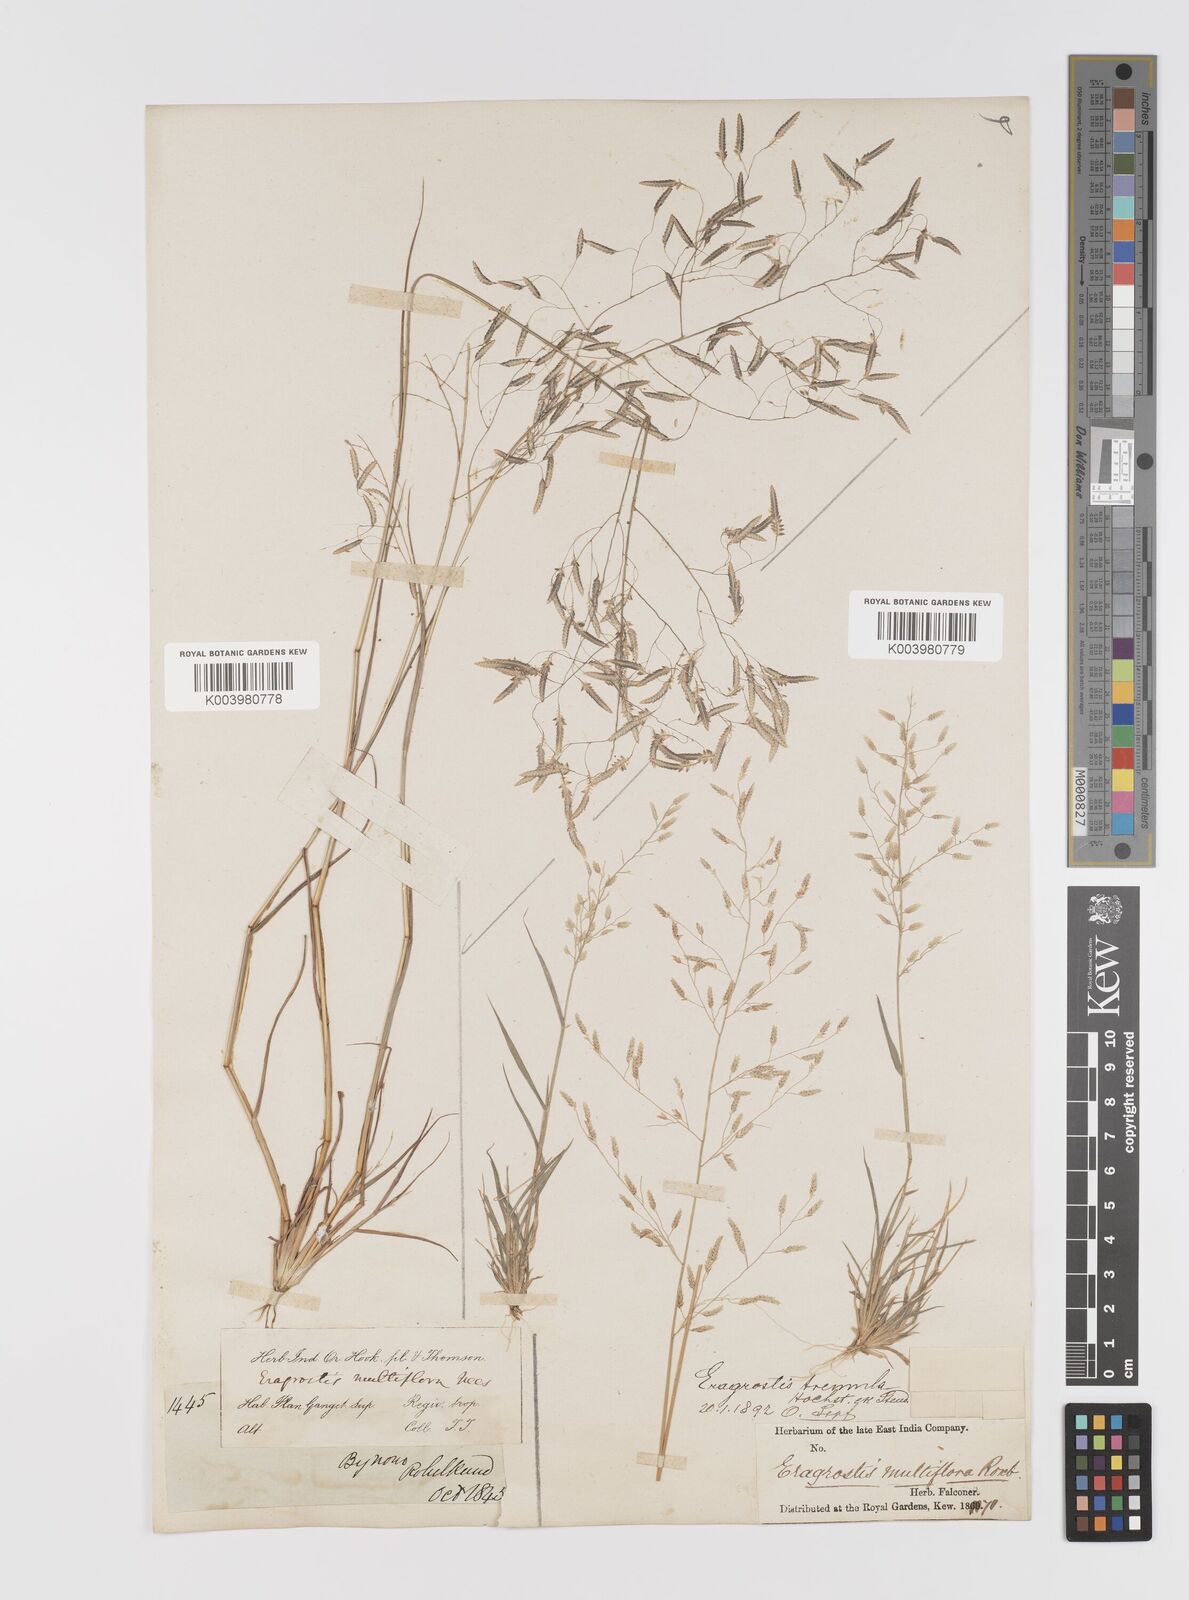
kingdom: Plantae
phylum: Tracheophyta
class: Liliopsida
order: Poales
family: Poaceae
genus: Eragrostis
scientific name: Eragrostis tremula
